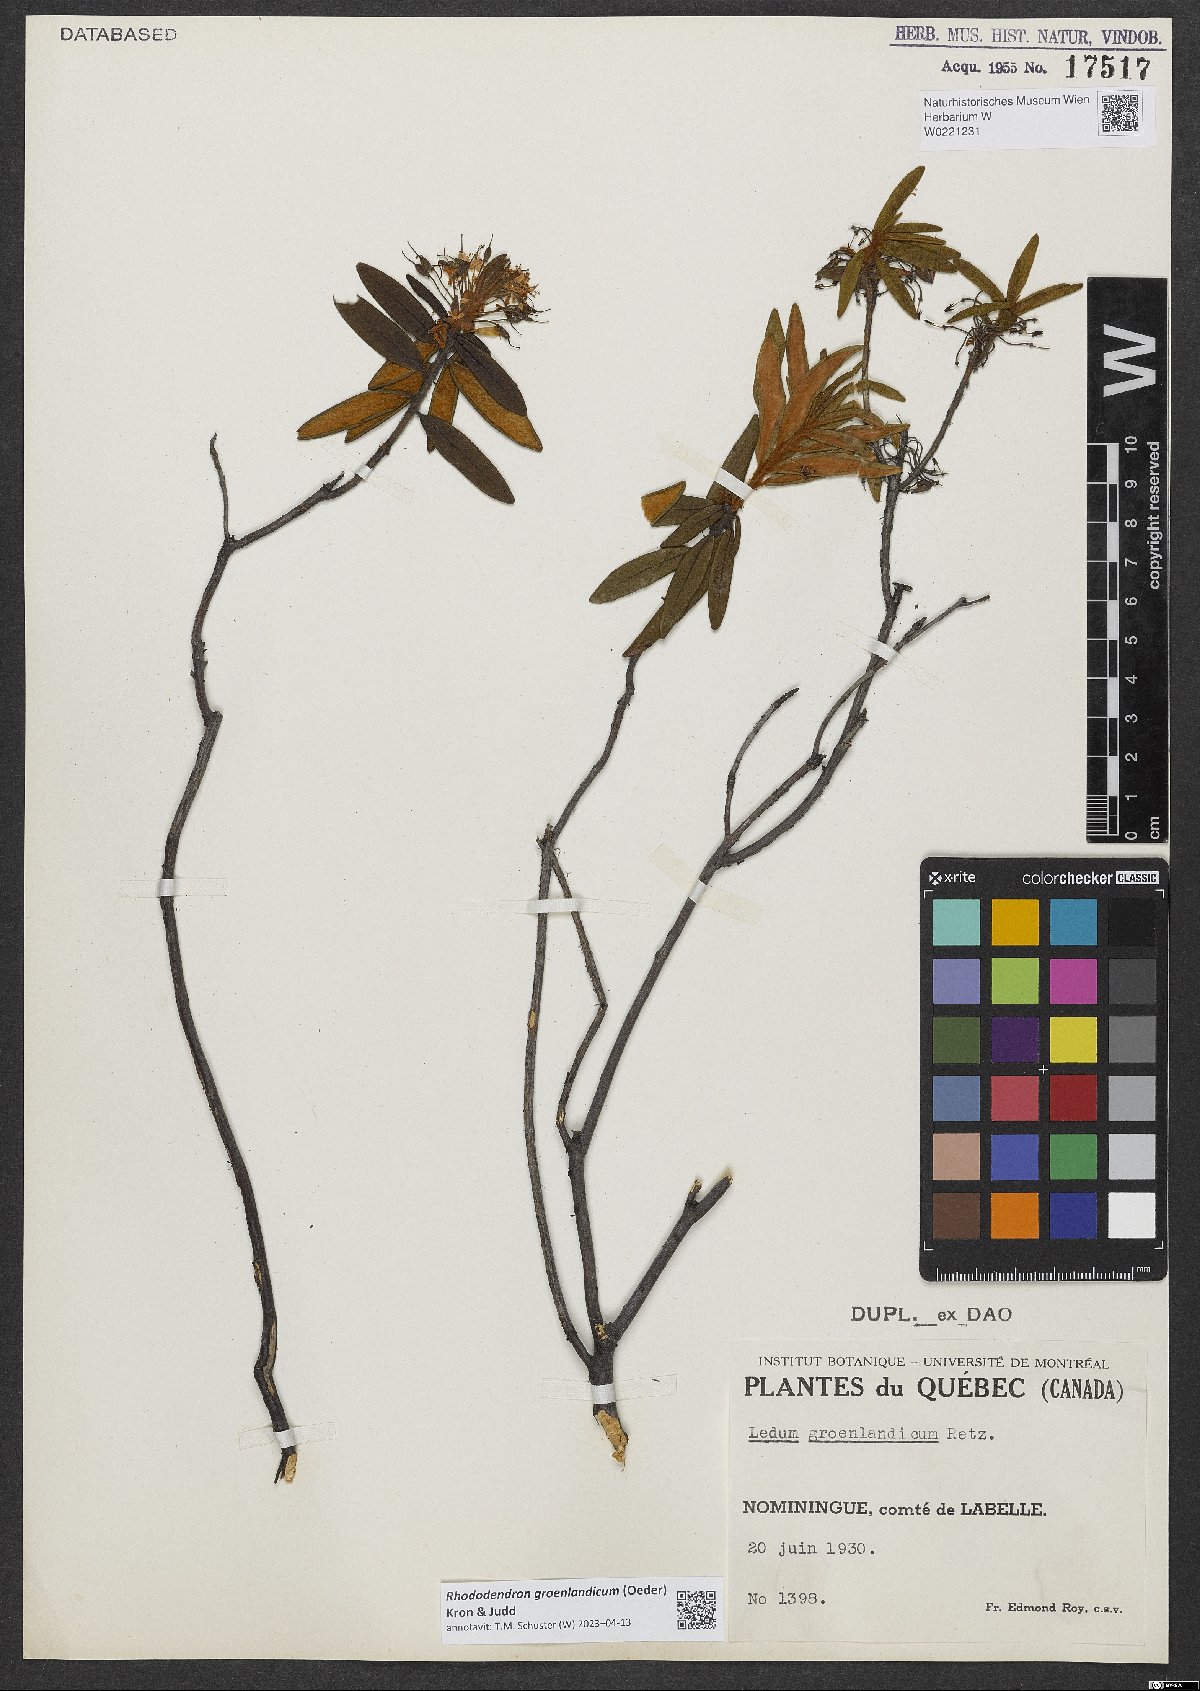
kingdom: Plantae
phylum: Tracheophyta
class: Magnoliopsida
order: Ericales
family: Ericaceae
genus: Rhododendron
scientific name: Rhododendron groenlandicum
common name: Bog labrador tea
